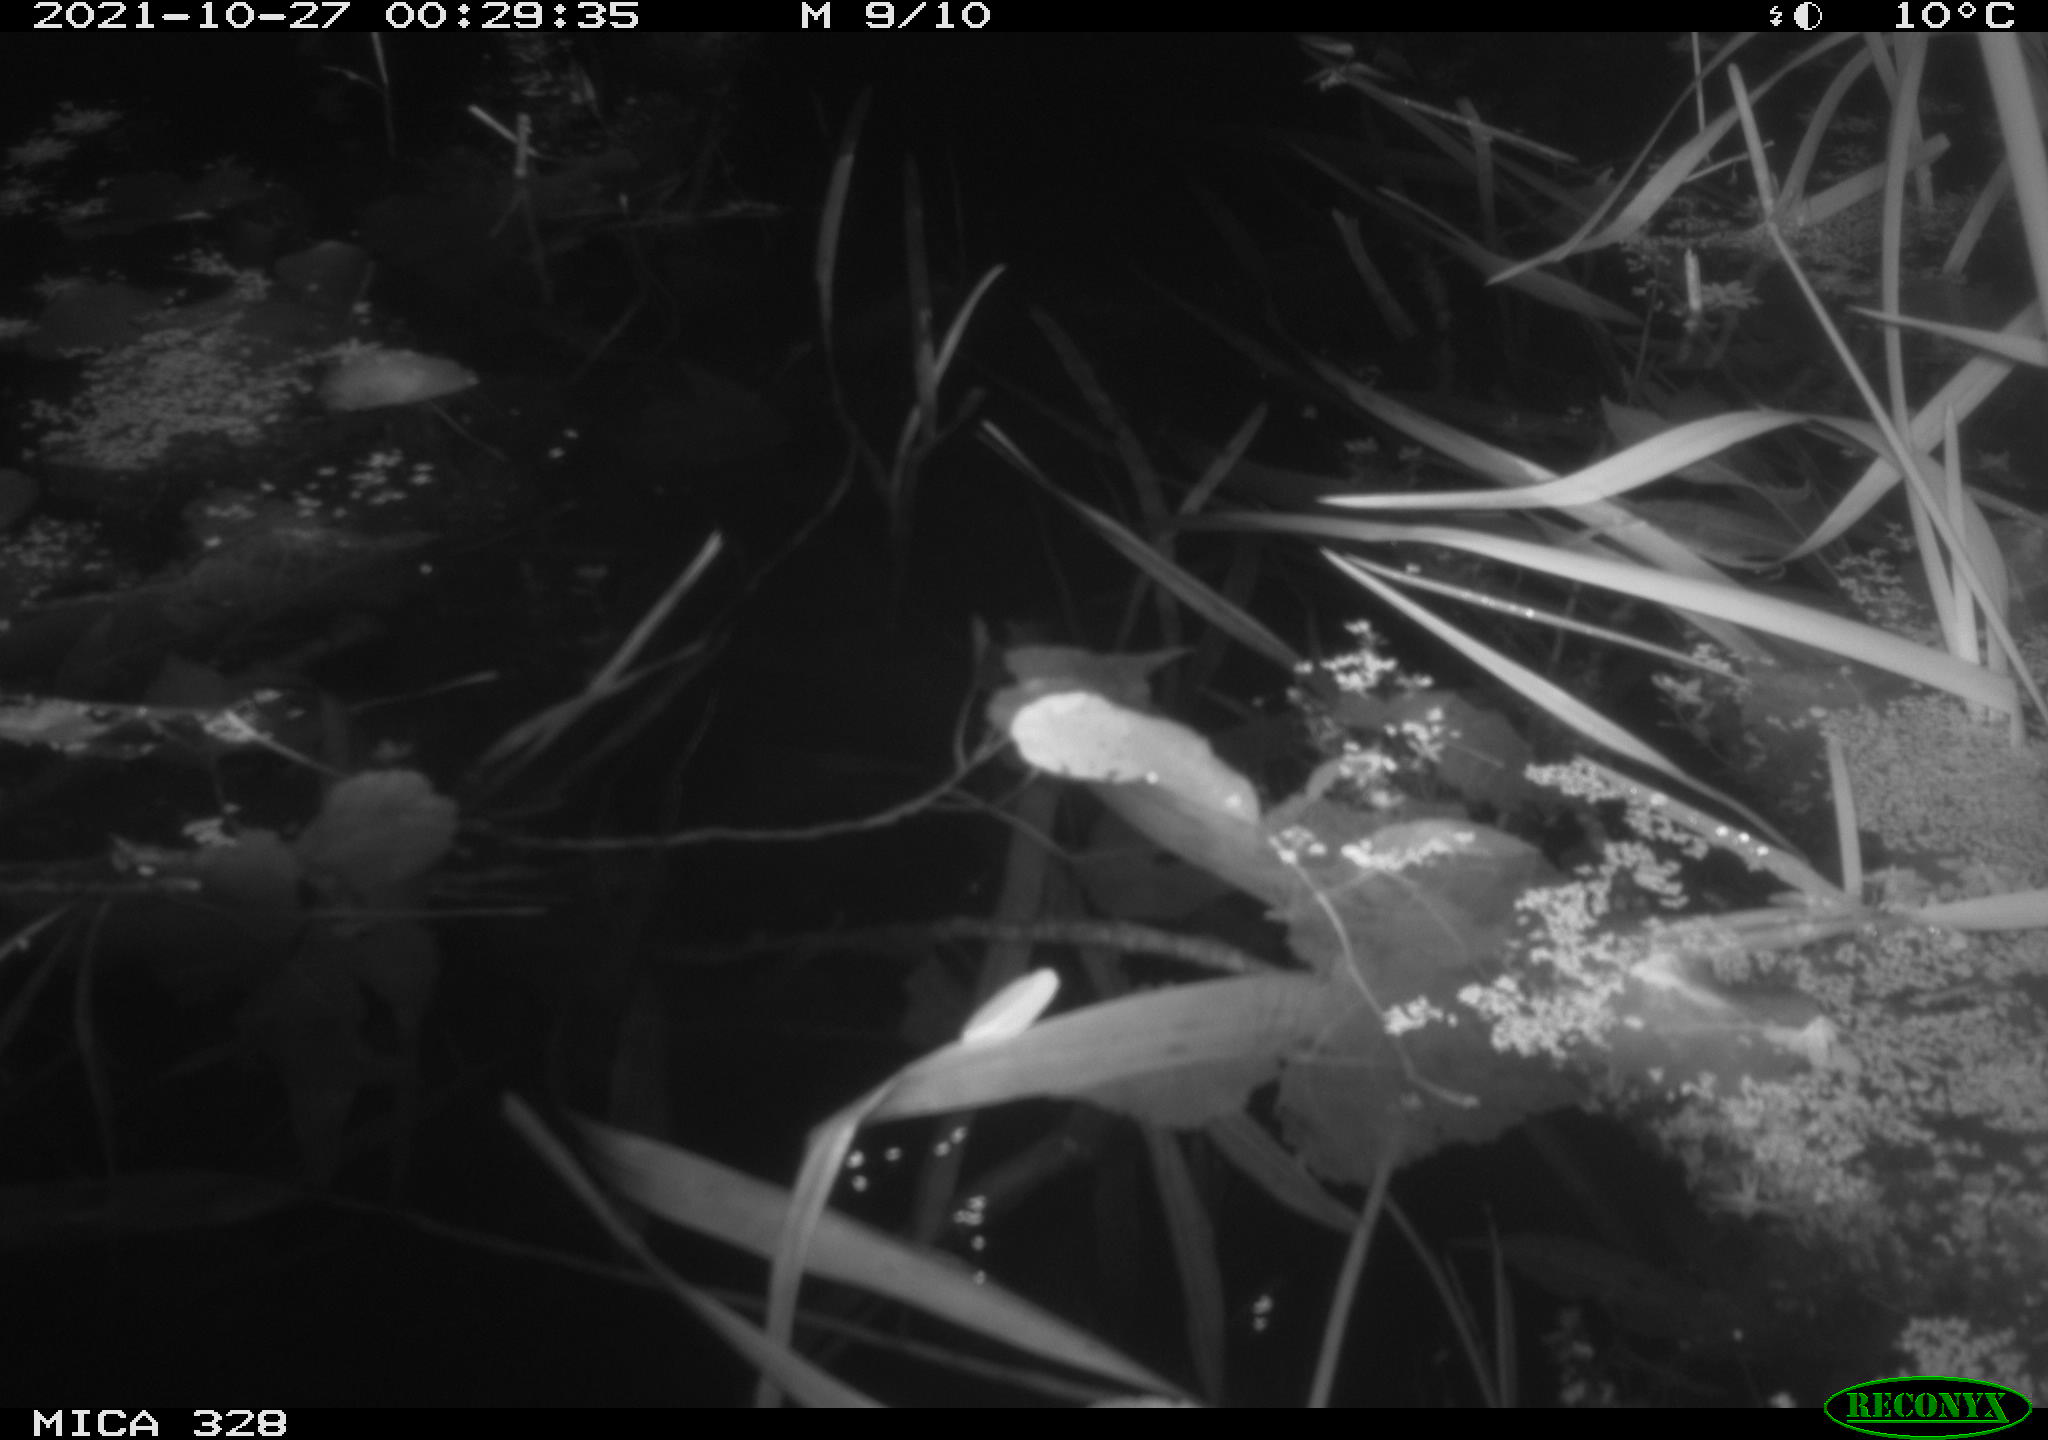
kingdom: Animalia
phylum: Chordata
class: Mammalia
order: Rodentia
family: Cricetidae
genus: Ondatra
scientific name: Ondatra zibethicus
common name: Muskrat
